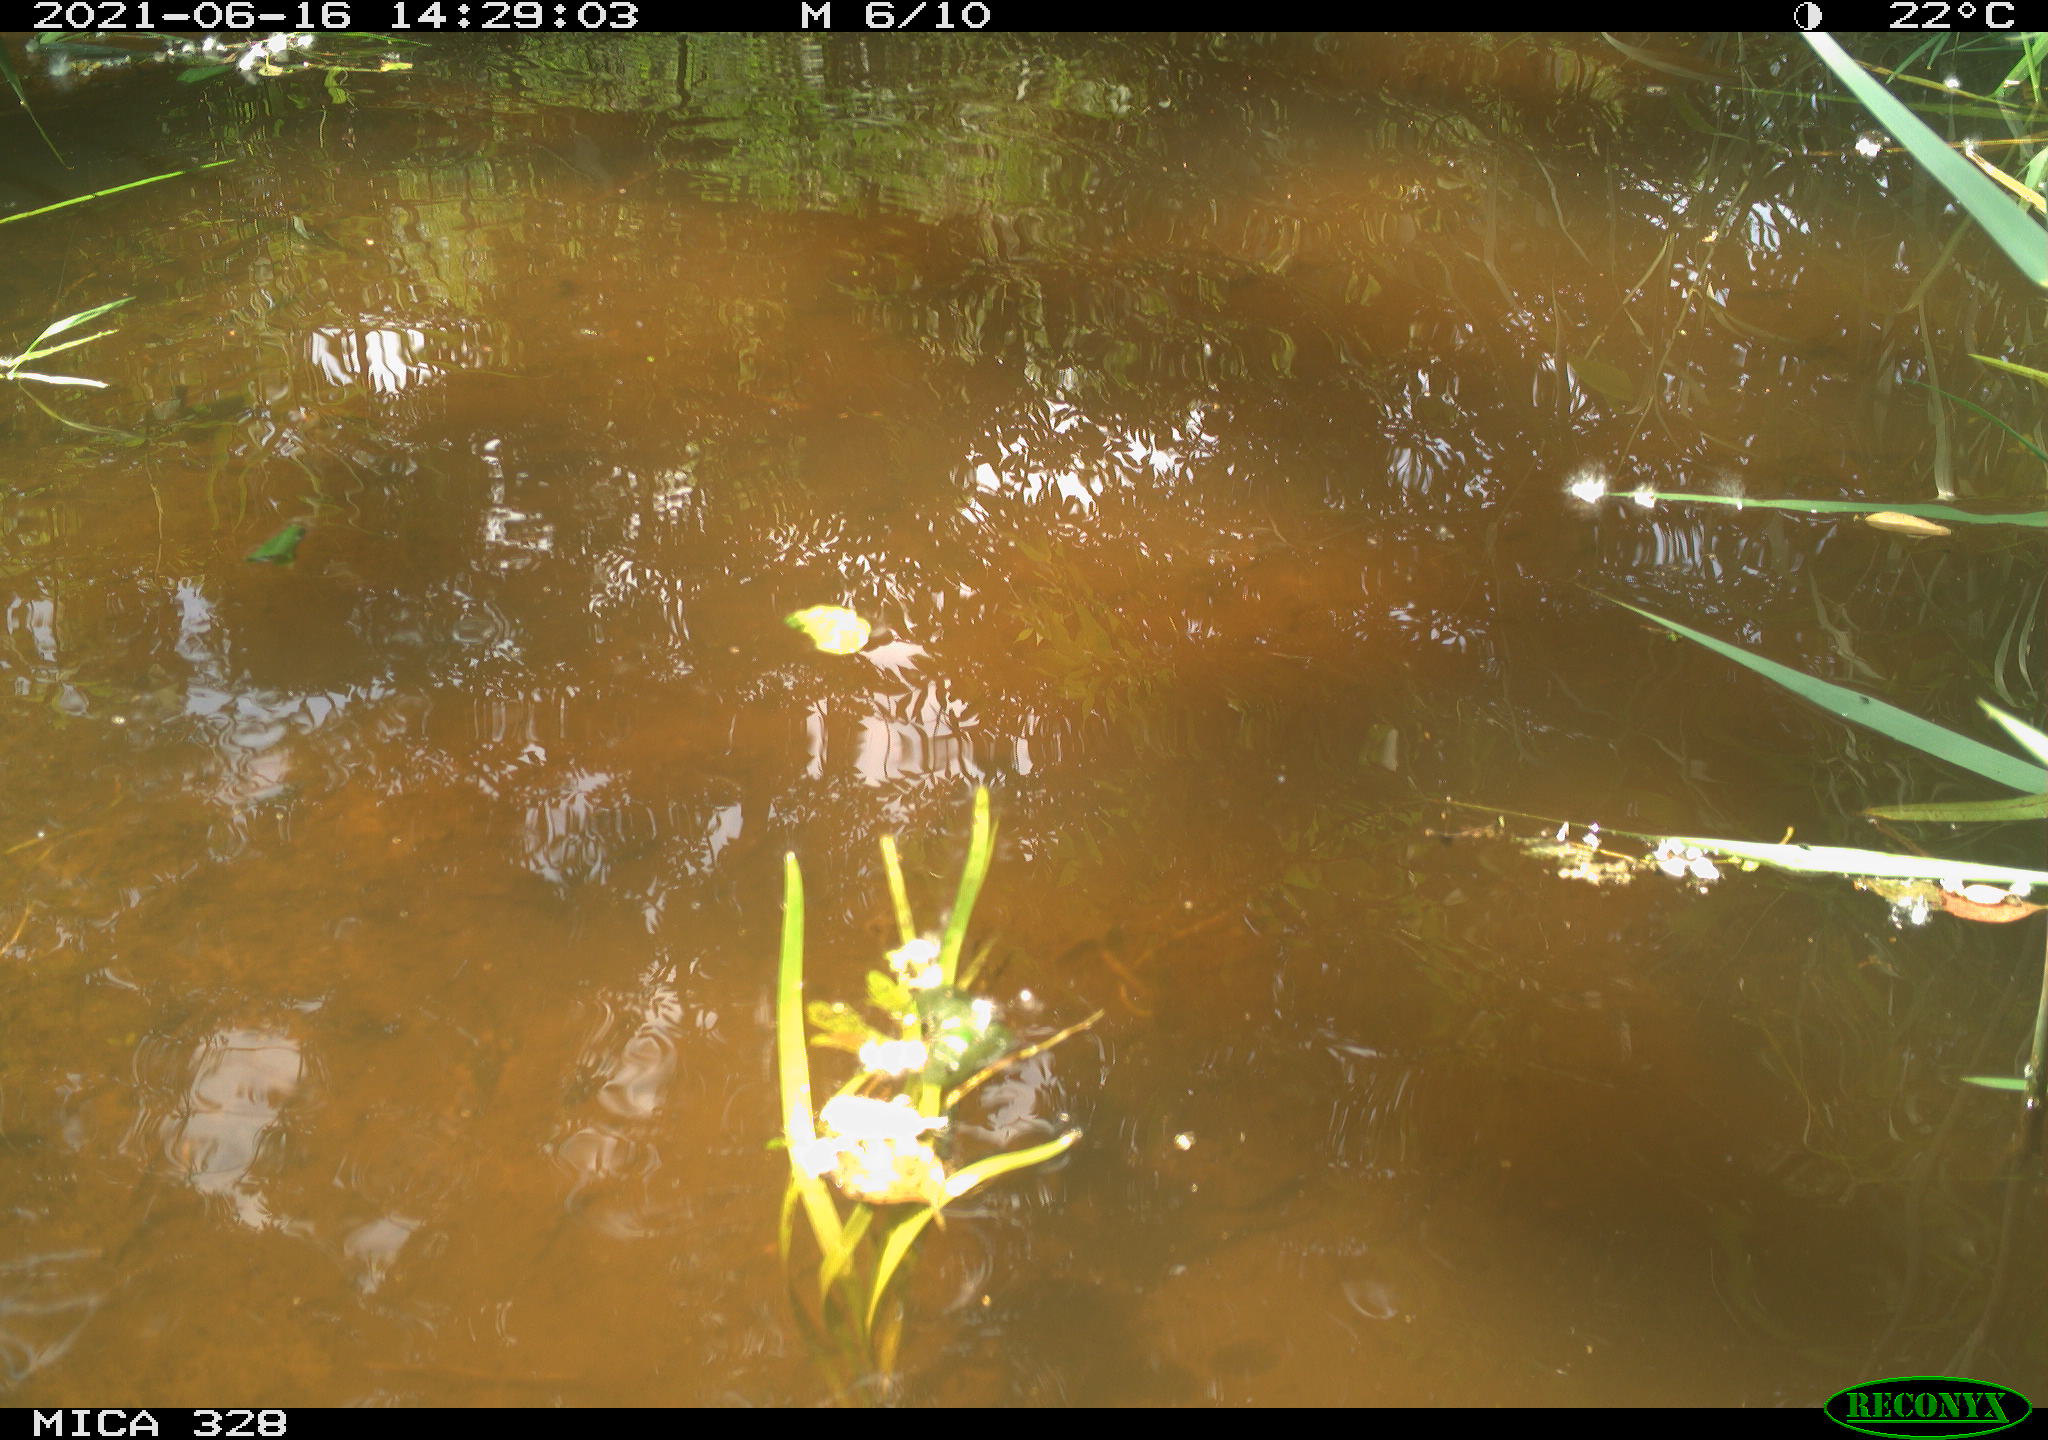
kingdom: Animalia
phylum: Chordata
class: Mammalia
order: Rodentia
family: Cricetidae
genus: Ondatra
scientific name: Ondatra zibethicus
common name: Muskrat
